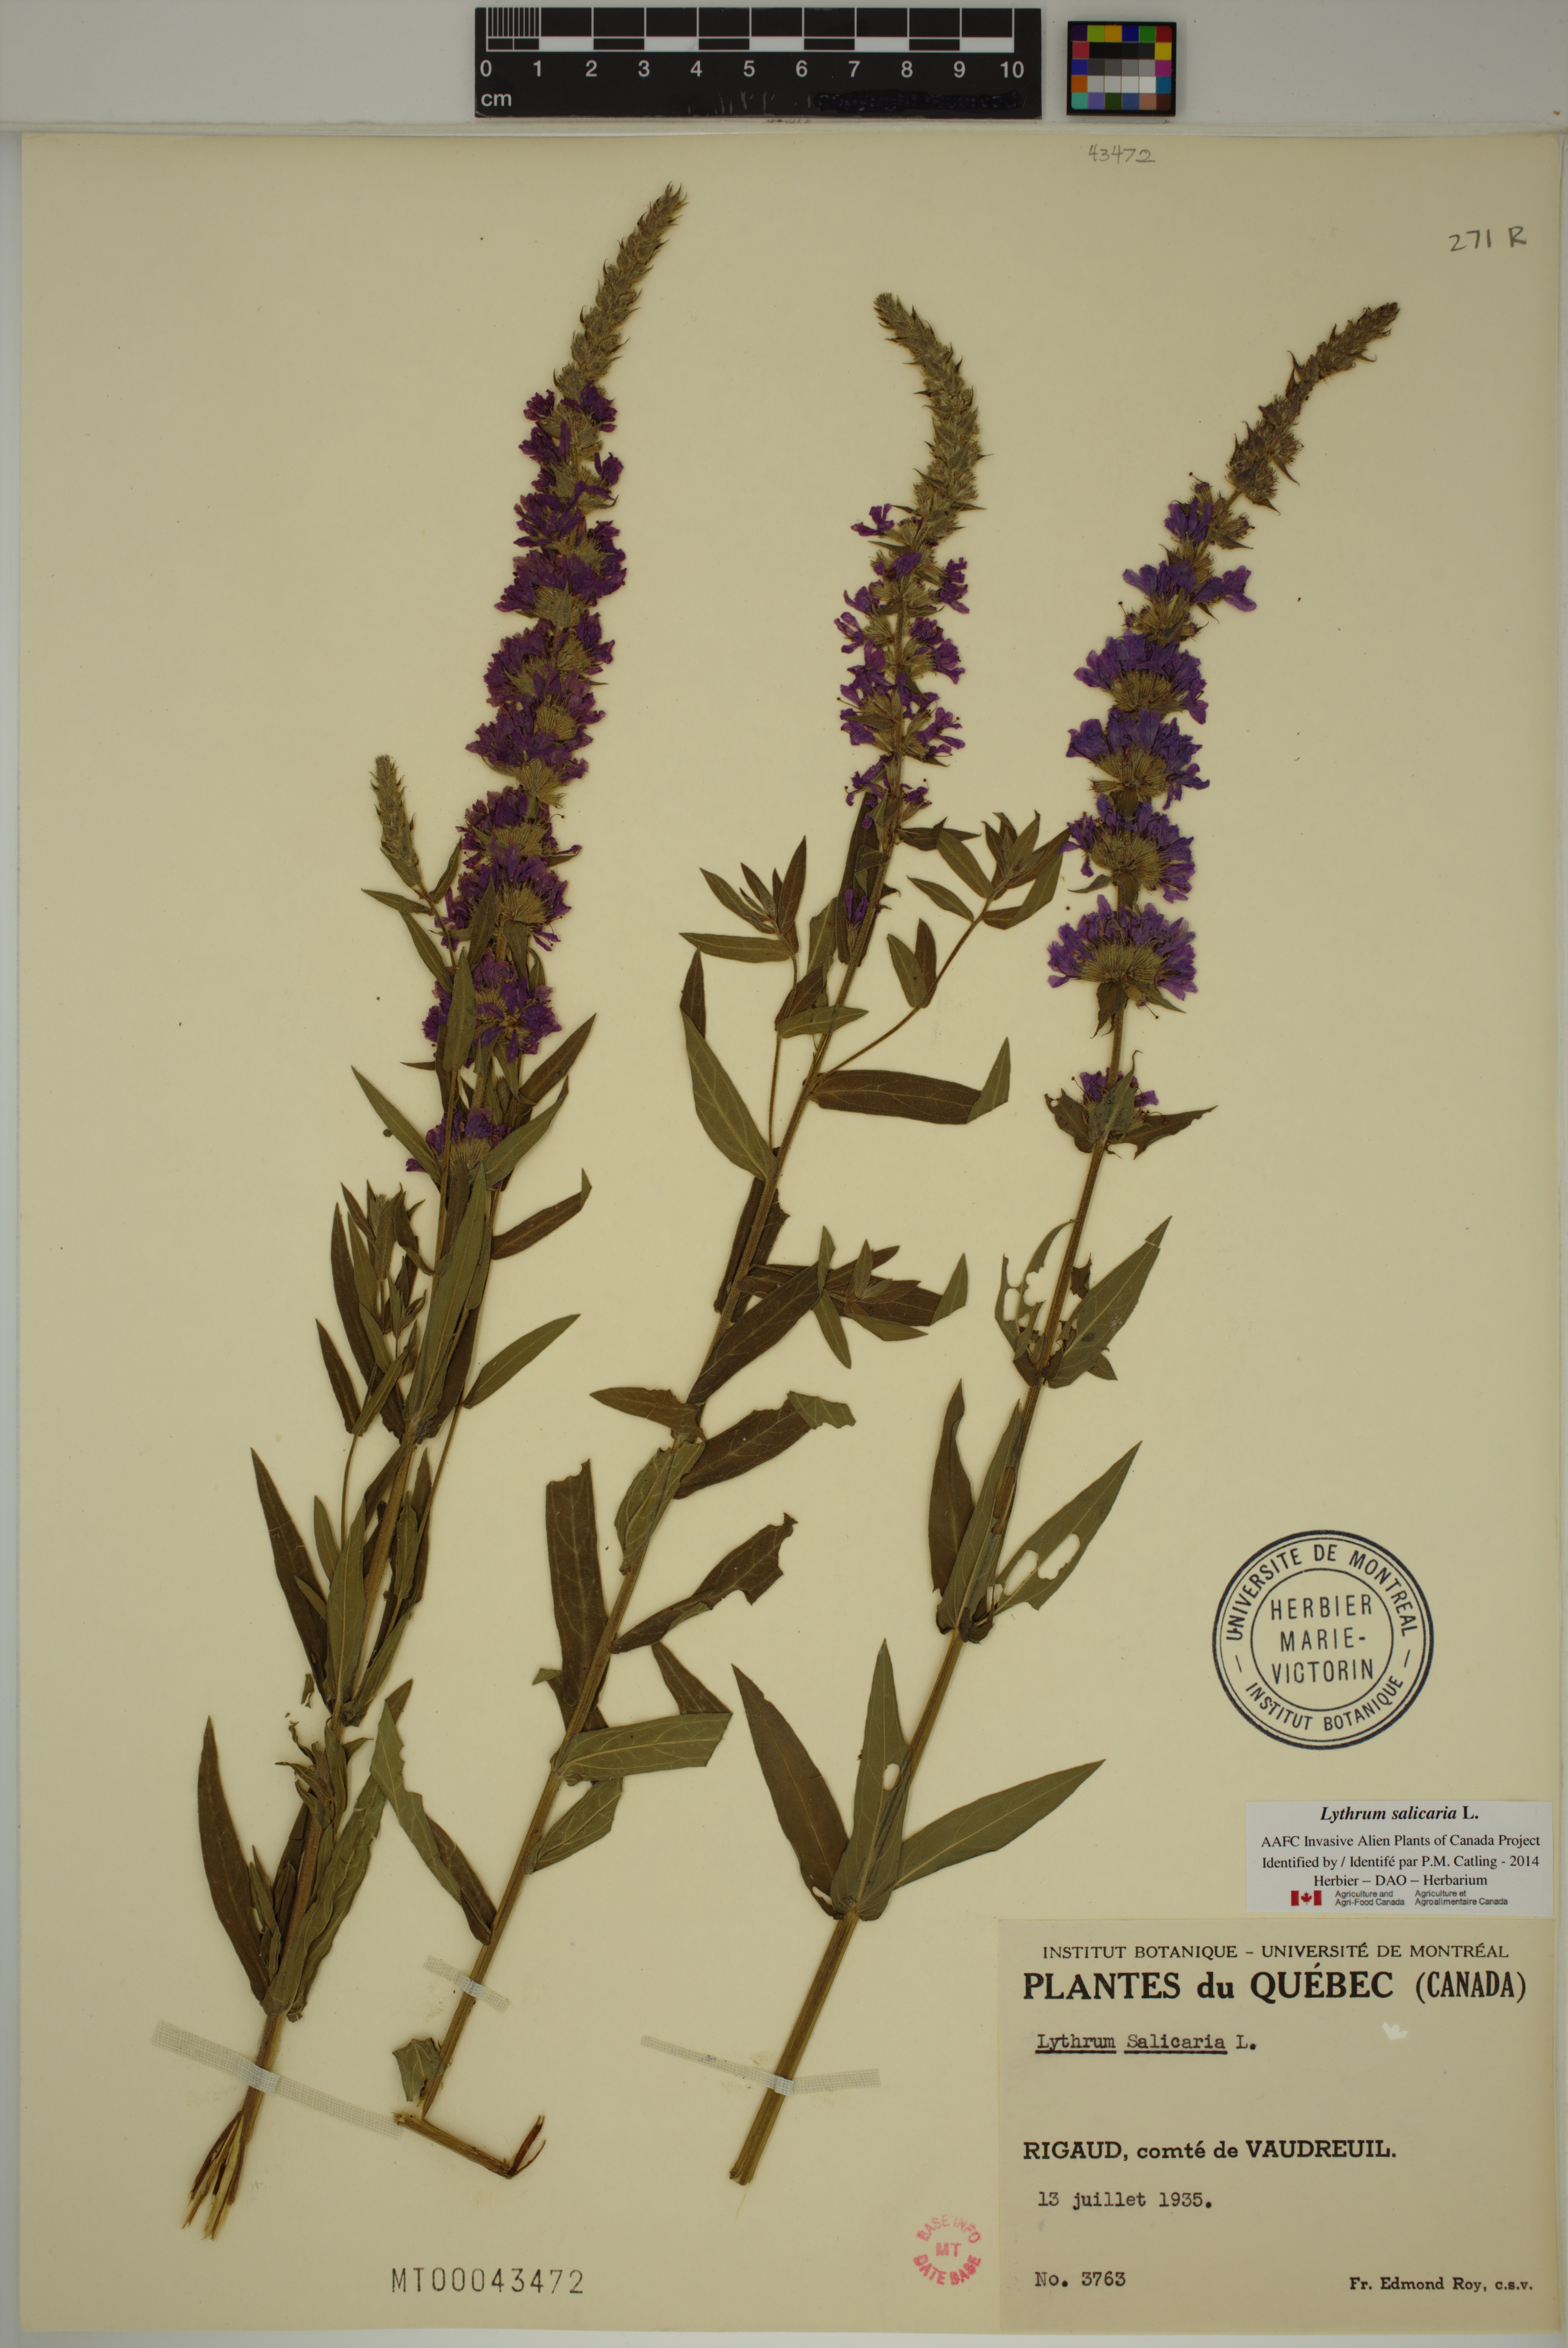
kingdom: Plantae
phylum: Tracheophyta
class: Magnoliopsida
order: Myrtales
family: Lythraceae
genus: Lythrum
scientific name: Lythrum salicaria
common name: Purple loosestrife
